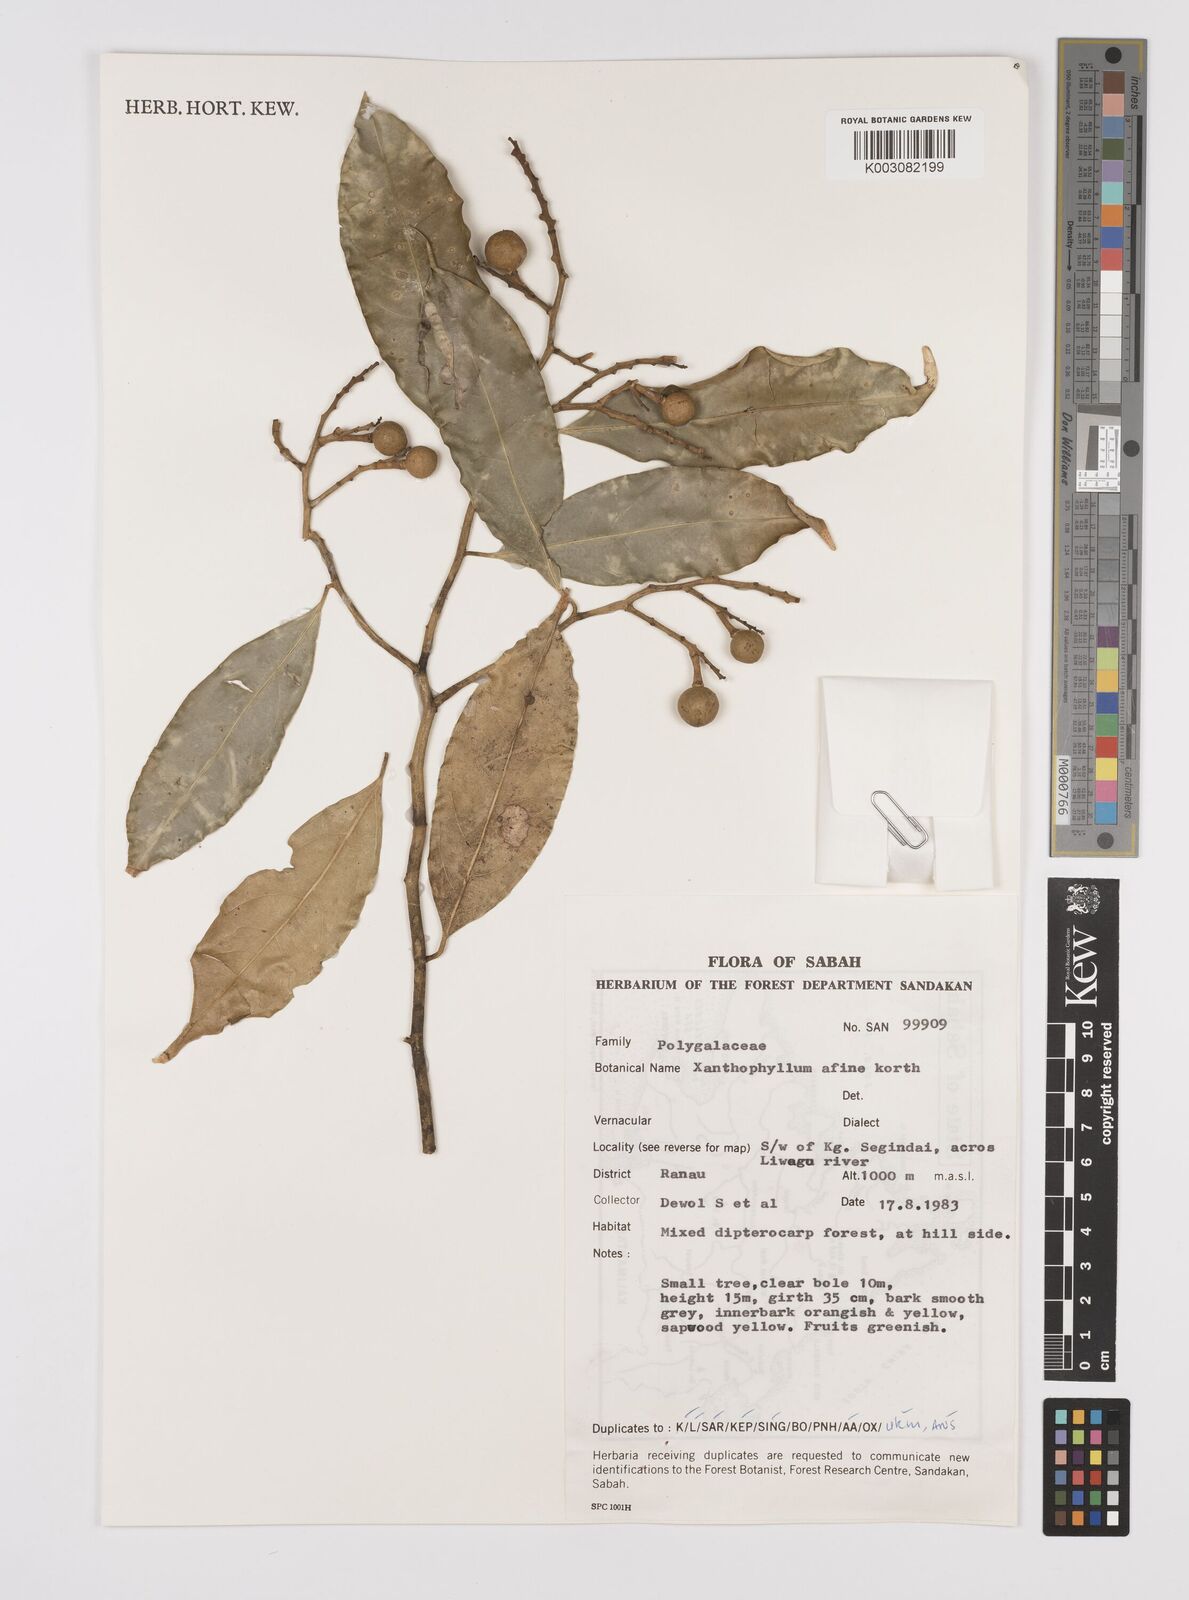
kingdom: Plantae
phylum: Tracheophyta
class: Magnoliopsida
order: Fabales
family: Polygalaceae
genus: Xanthophyllum
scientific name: Xanthophyllum flavescens
